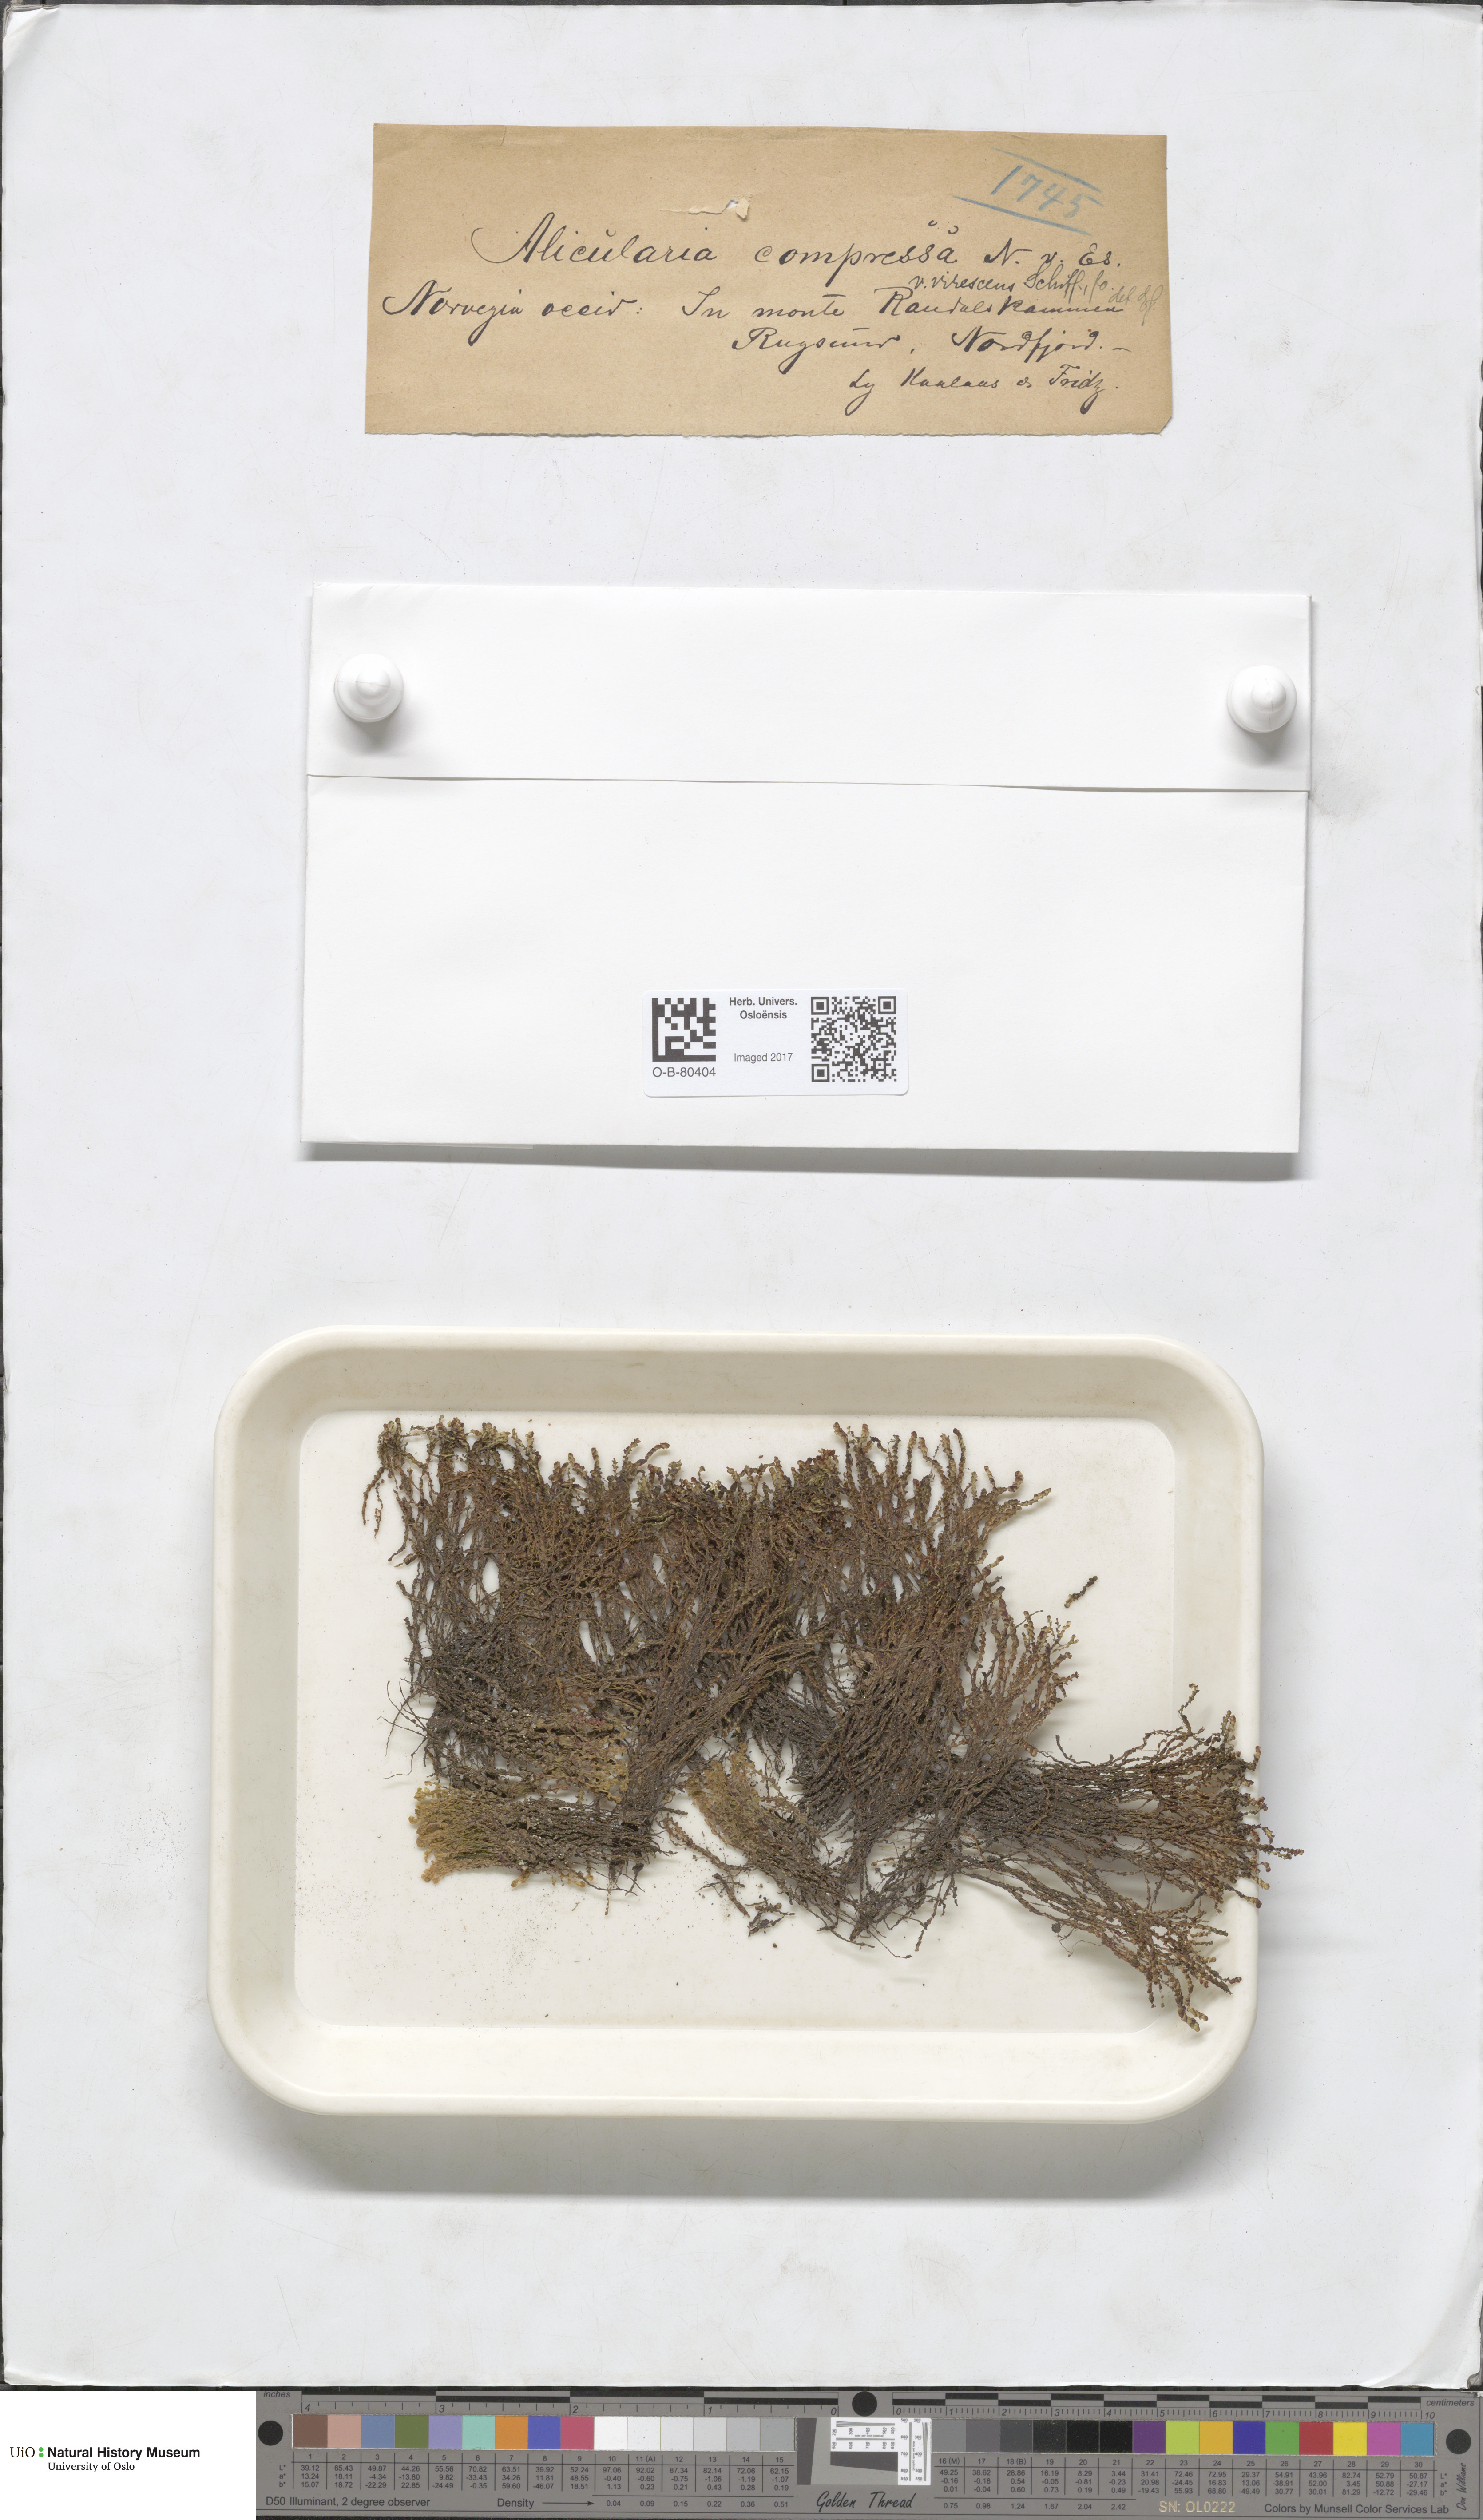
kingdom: Plantae
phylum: Marchantiophyta
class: Jungermanniopsida
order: Jungermanniales
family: Gymnomitriaceae
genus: Nardia
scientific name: Nardia compressa
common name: Compressed flapwort
